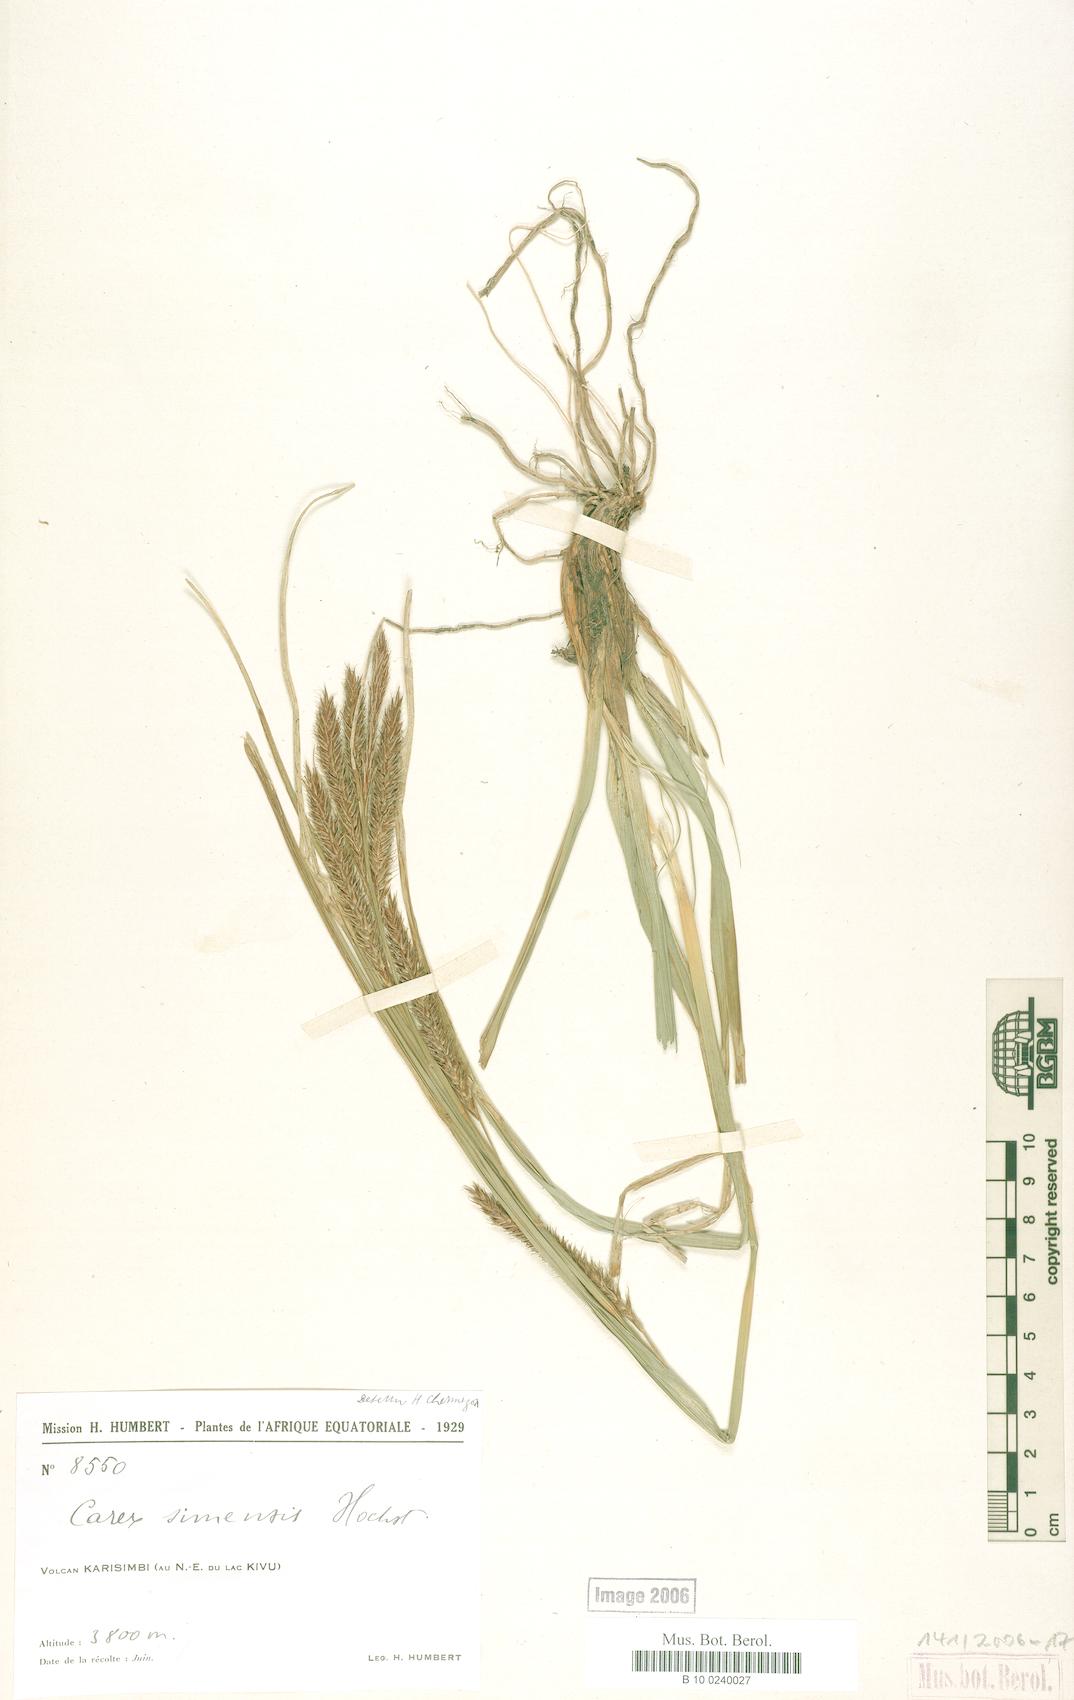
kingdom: Plantae
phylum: Tracheophyta
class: Liliopsida
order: Poales
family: Cyperaceae
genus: Carex
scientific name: Carex simensis
